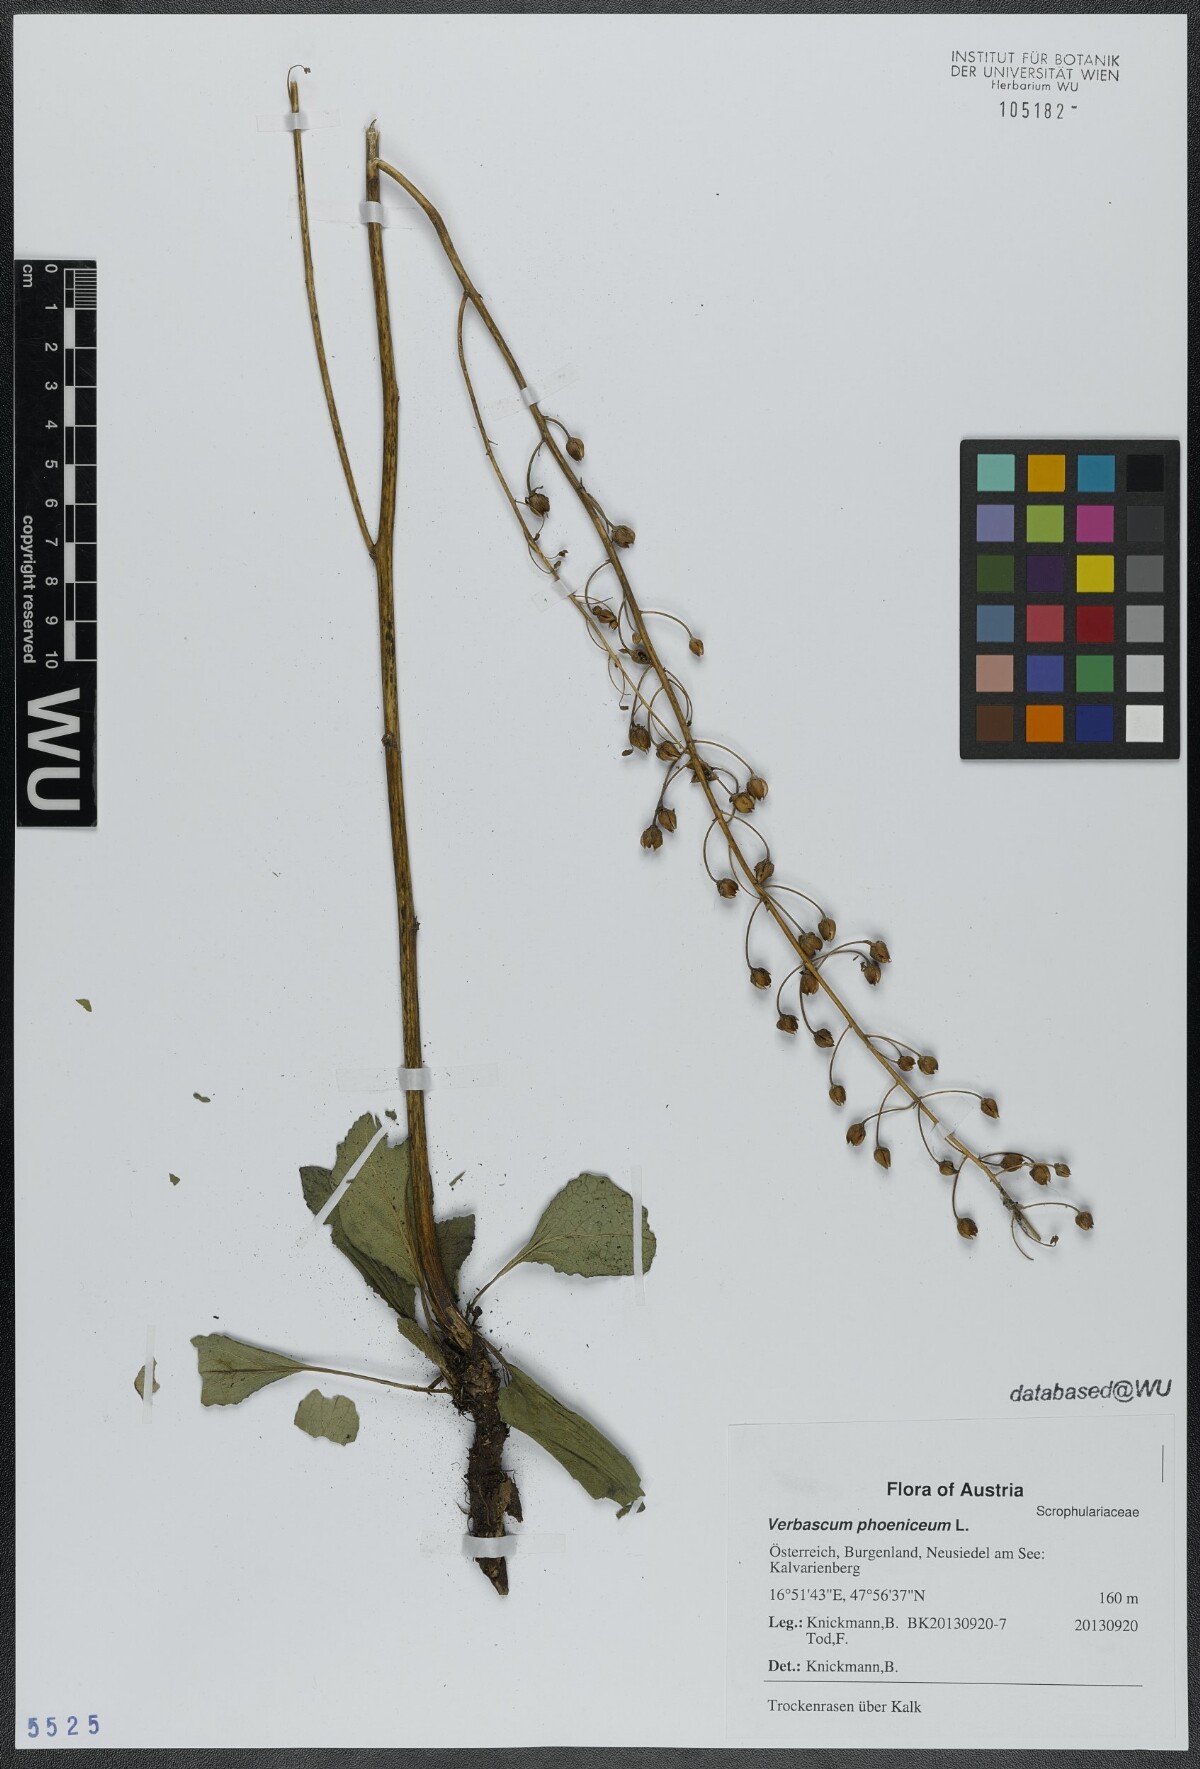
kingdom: Plantae
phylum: Tracheophyta
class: Magnoliopsida
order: Lamiales
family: Scrophulariaceae
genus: Verbascum
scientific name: Verbascum phoeniceum
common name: Purple mullein
